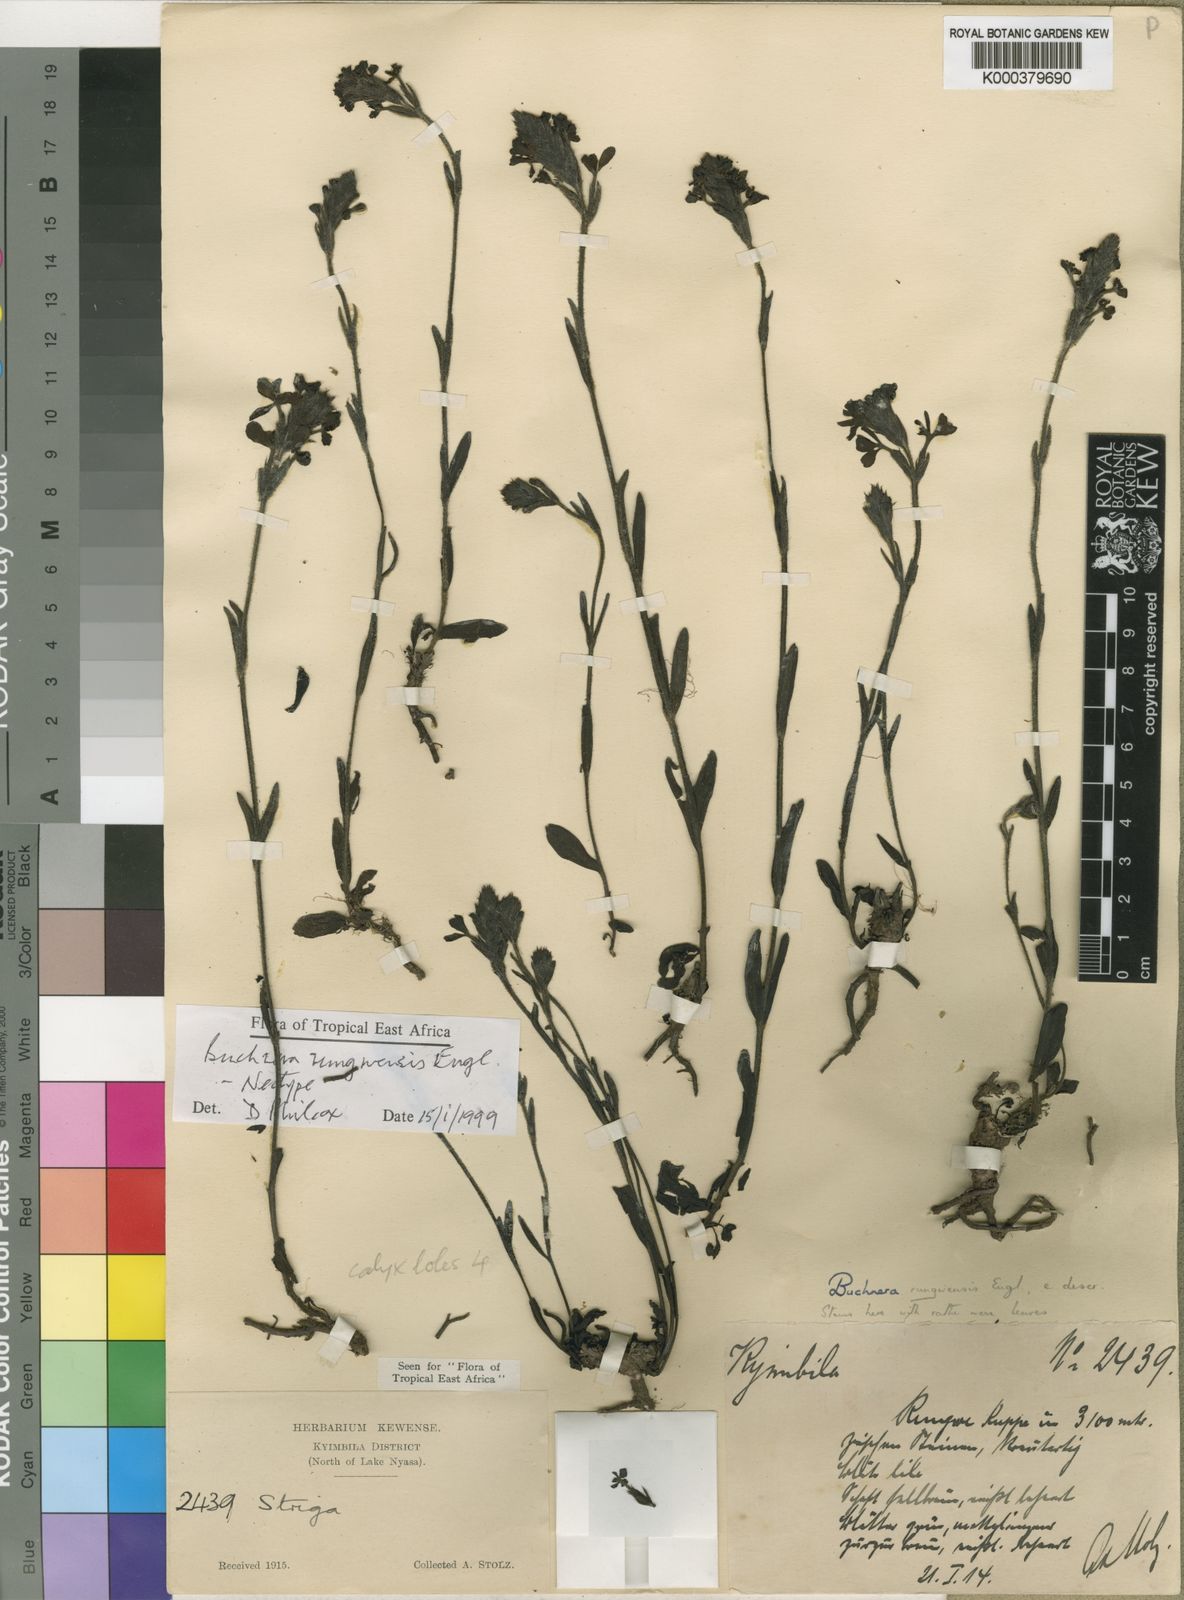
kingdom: Plantae
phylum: Tracheophyta
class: Magnoliopsida
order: Lamiales
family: Orobanchaceae
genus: Buchnera
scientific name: Buchnera rungwensis
